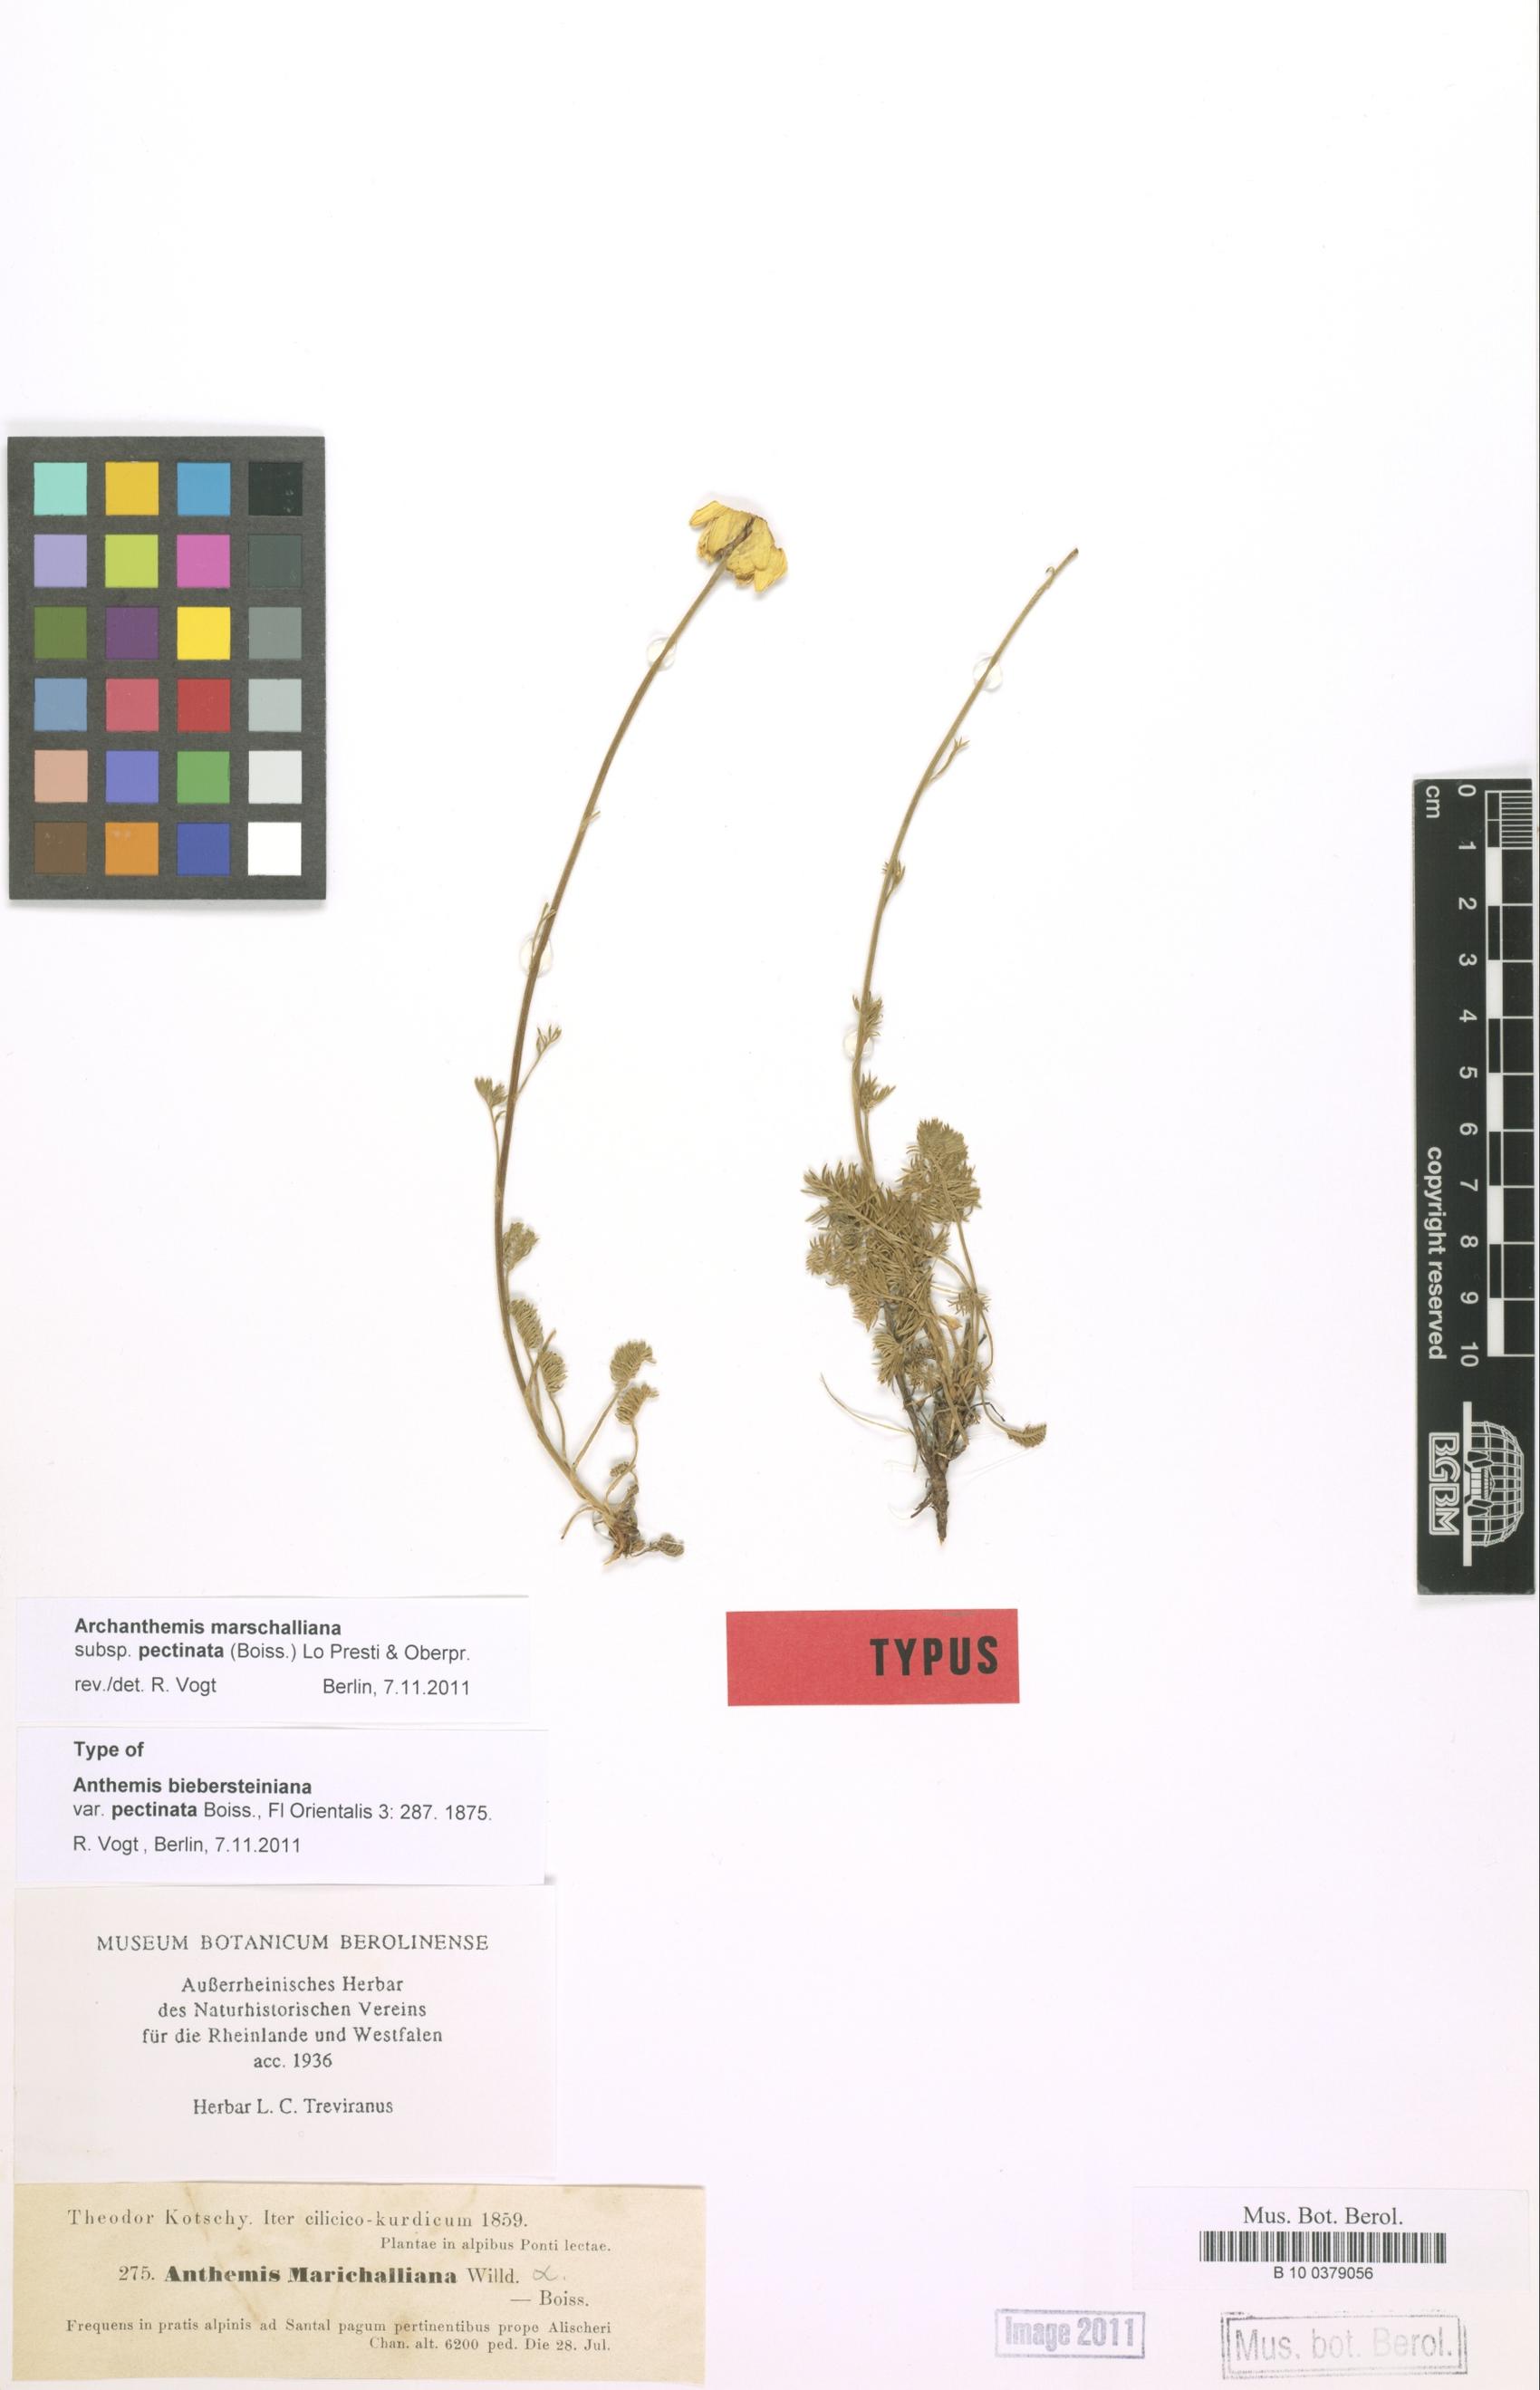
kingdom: Plantae
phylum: Tracheophyta
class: Magnoliopsida
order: Asterales
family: Asteraceae
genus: Archanthemis
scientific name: Archanthemis marschalliana
